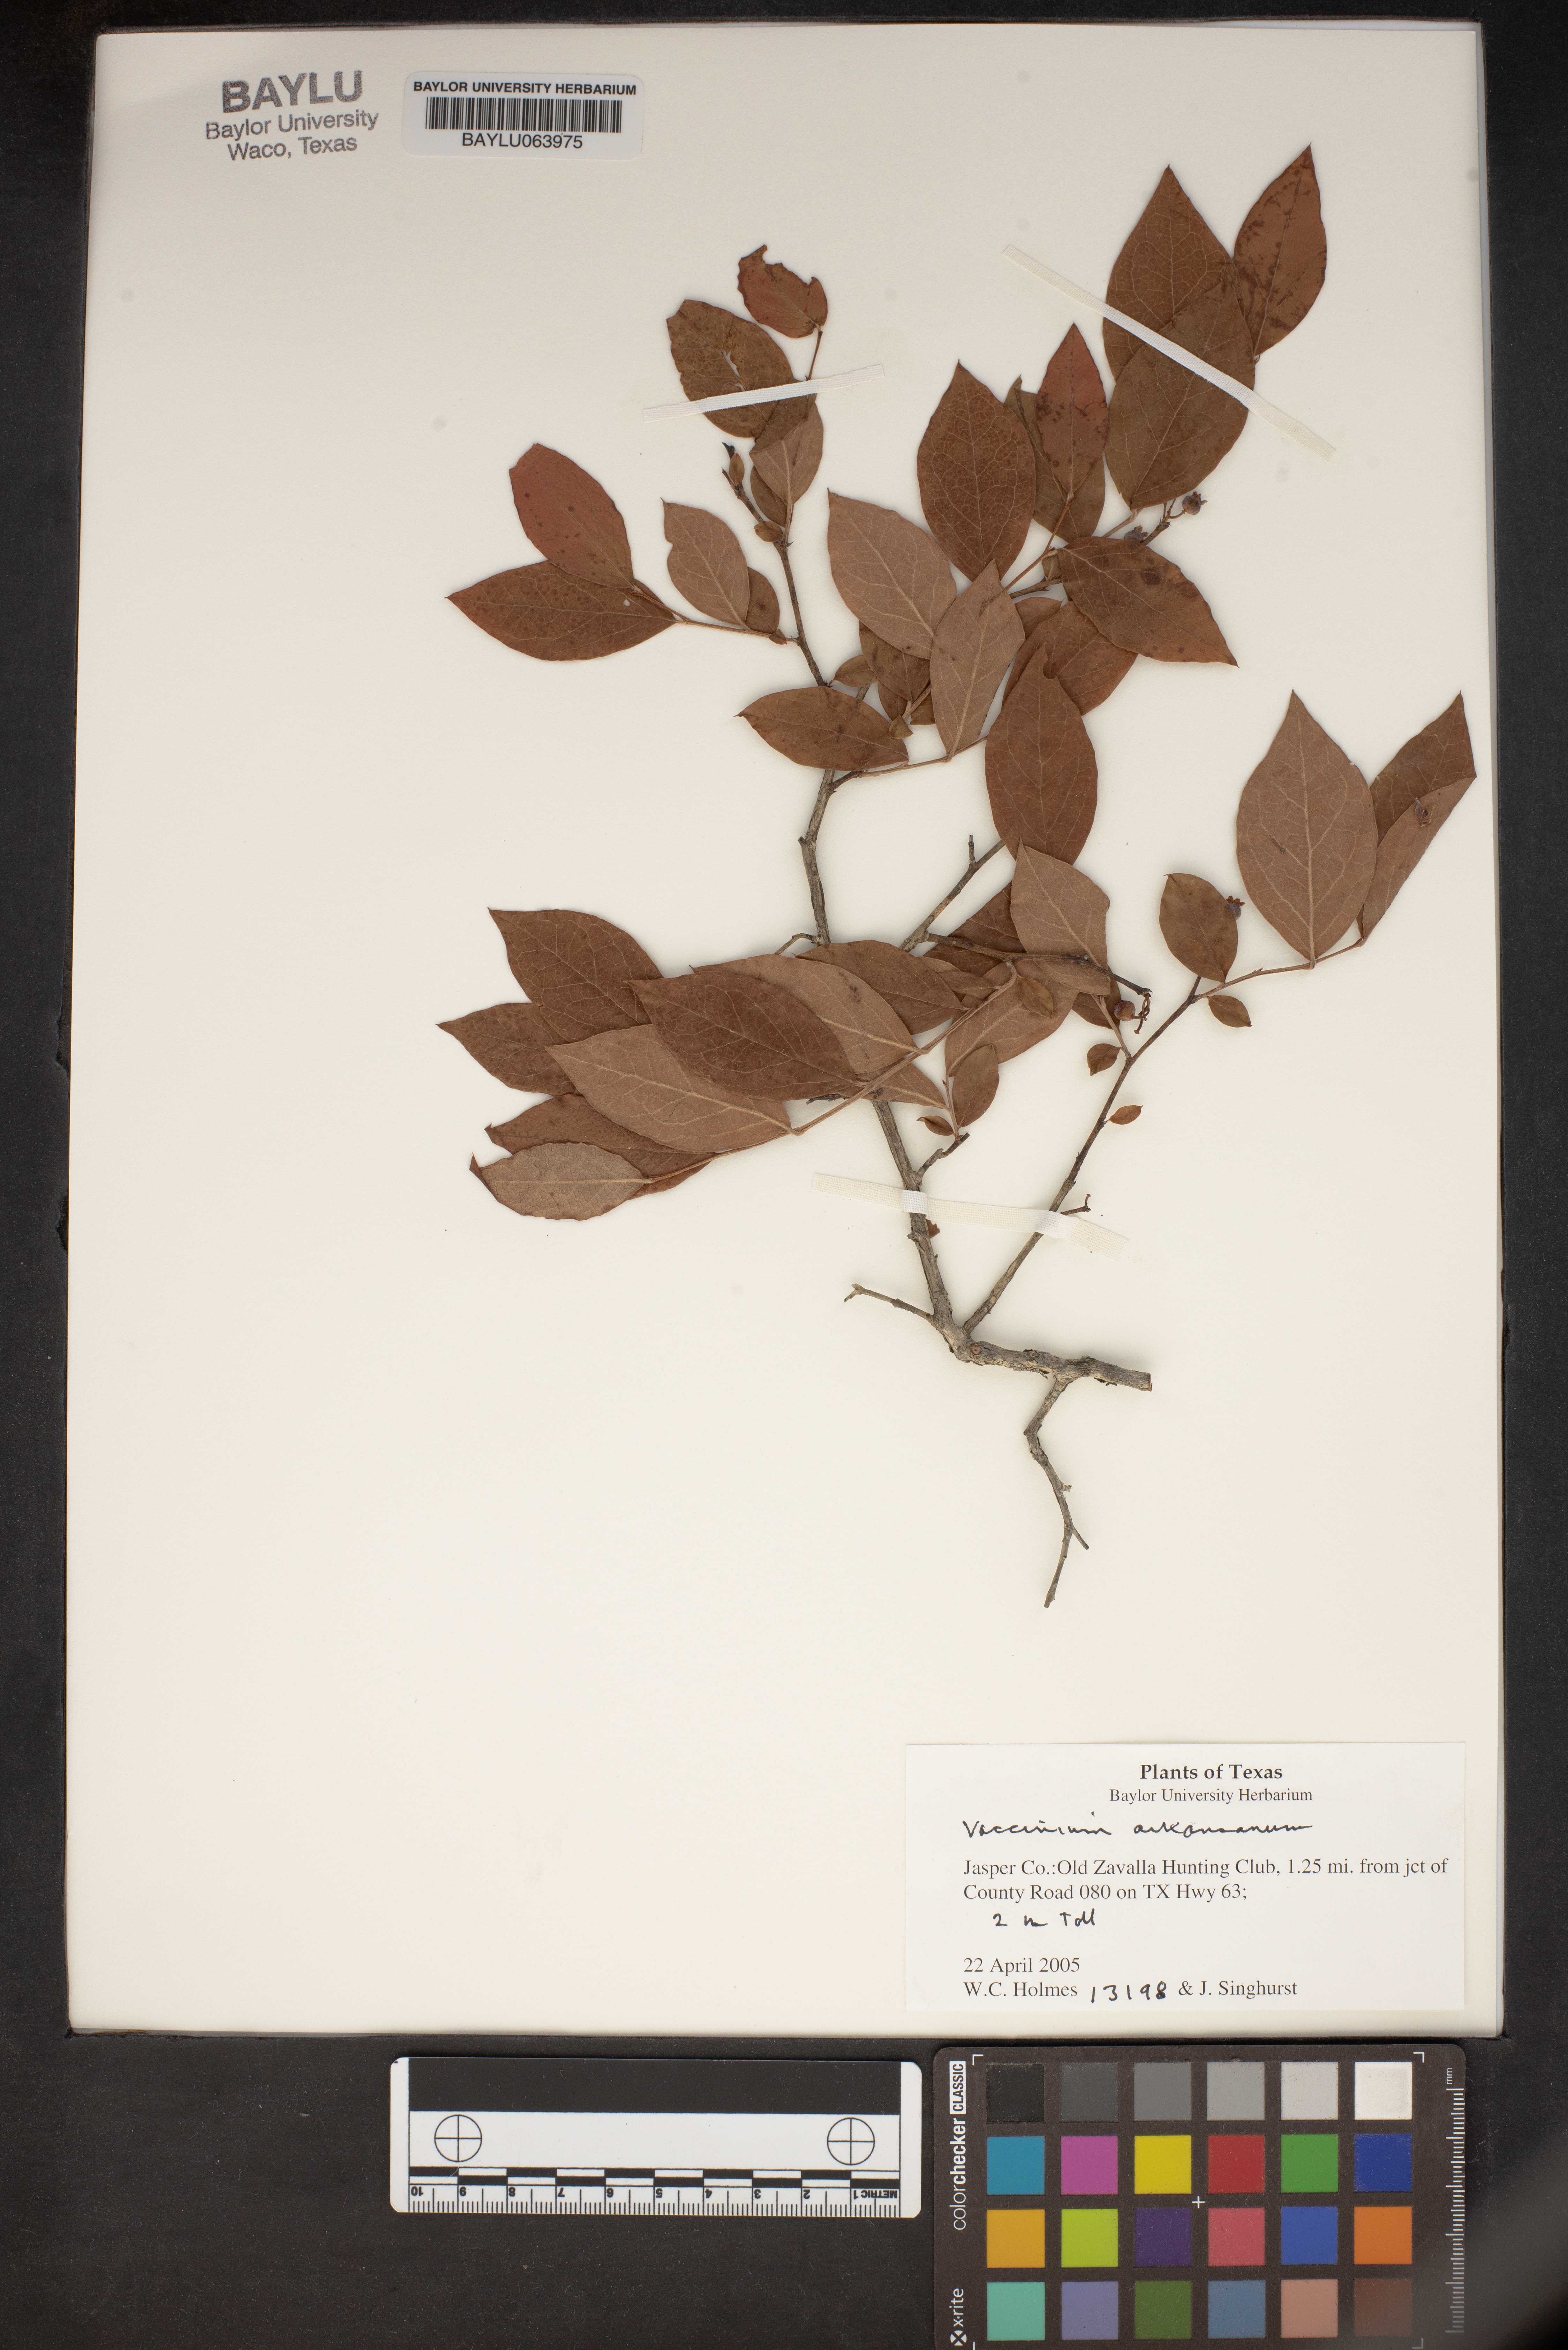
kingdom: Plantae
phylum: Tracheophyta
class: Magnoliopsida
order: Ericales
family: Ericaceae
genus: Vaccinium
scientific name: Vaccinium corymbosum
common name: Blueberry
